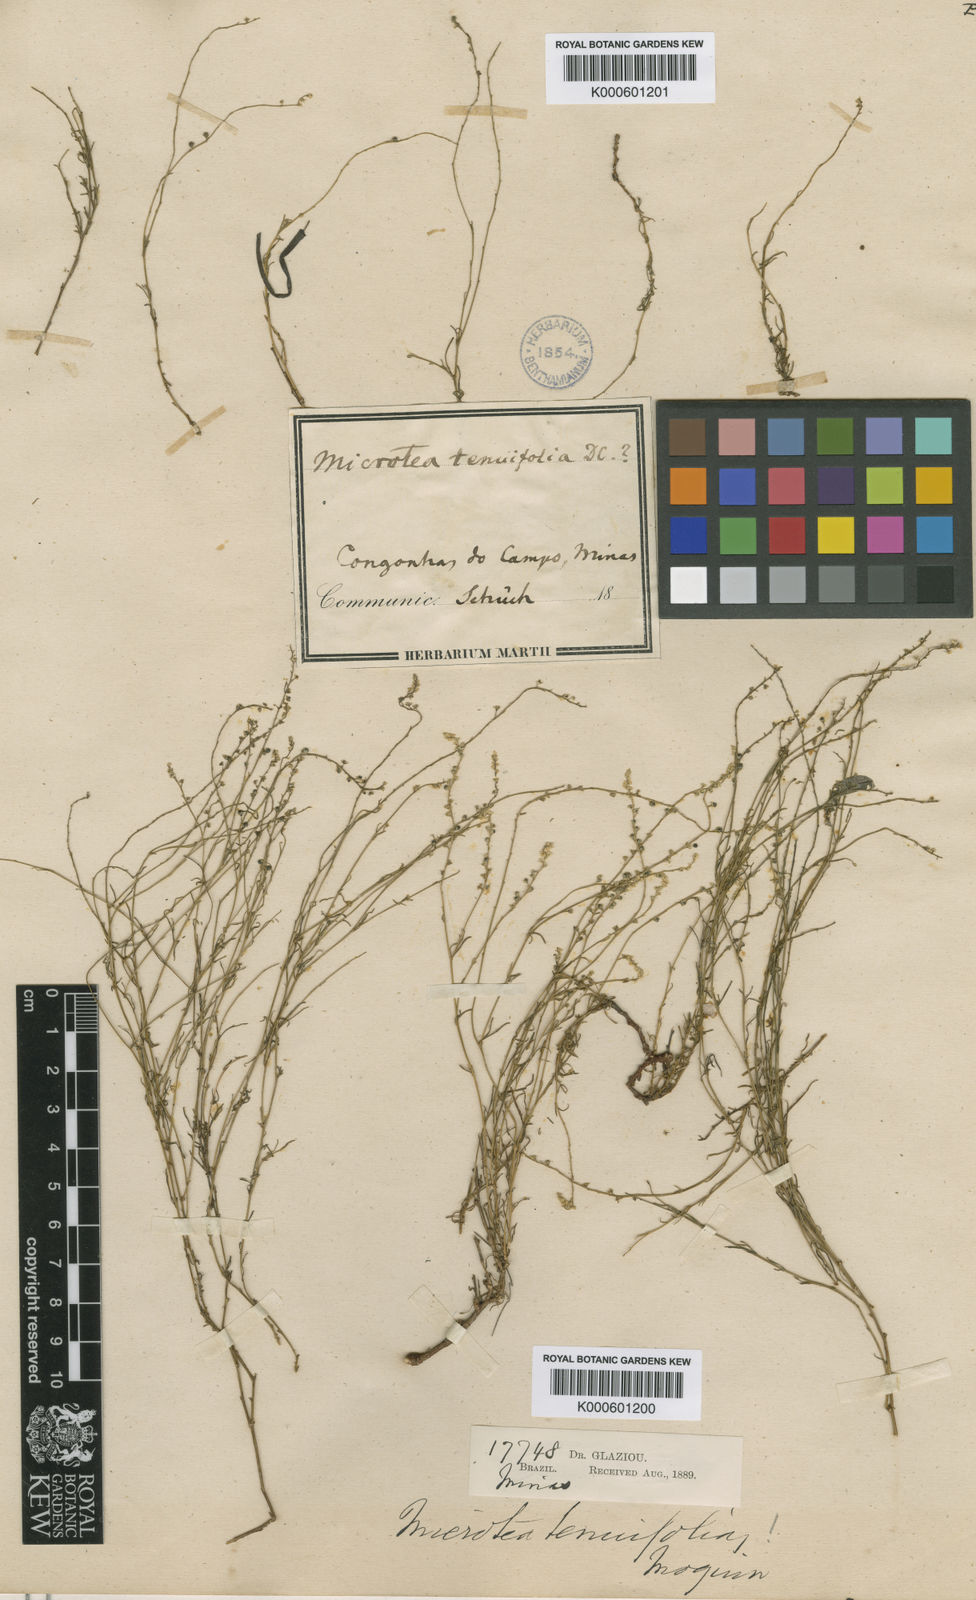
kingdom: Plantae
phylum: Tracheophyta
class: Magnoliopsida
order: Caryophyllales
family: Microteaceae
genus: Microtea
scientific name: Microtea tenuifolia
